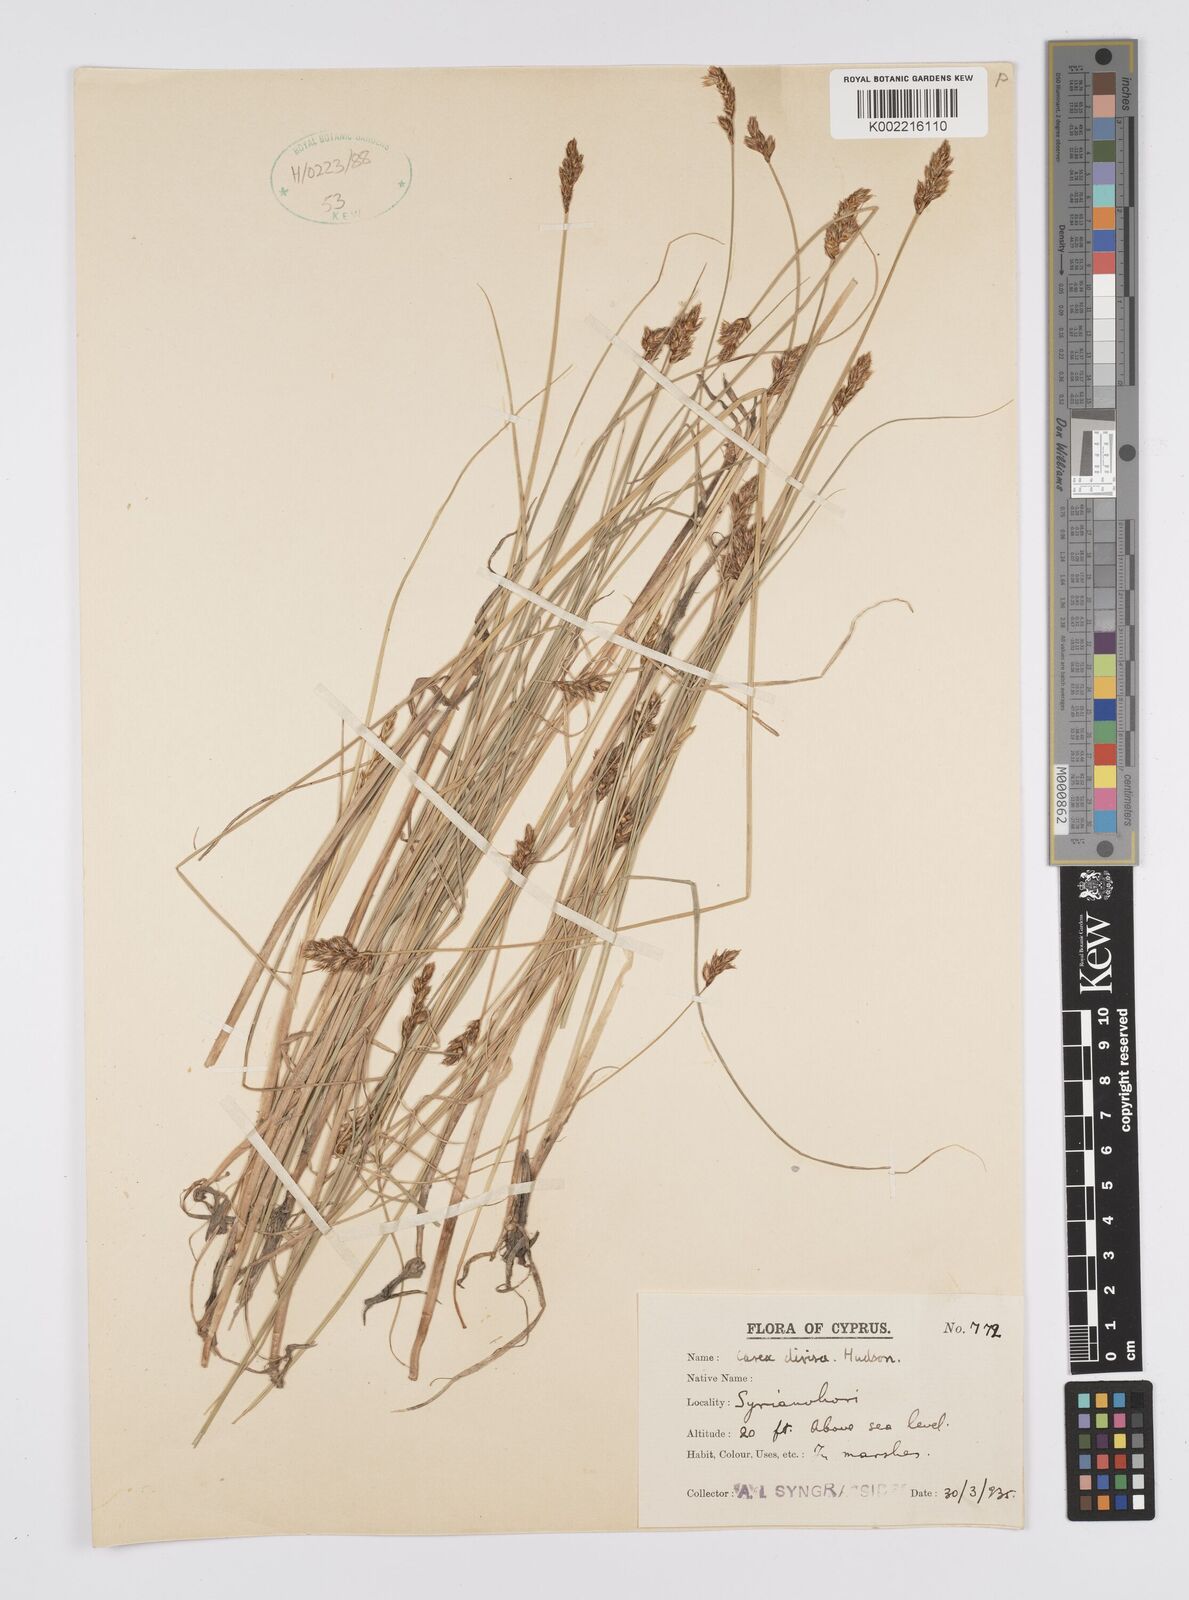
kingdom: Plantae
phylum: Tracheophyta
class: Liliopsida
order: Poales
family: Cyperaceae
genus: Carex
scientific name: Carex divisa
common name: Divided sedge
